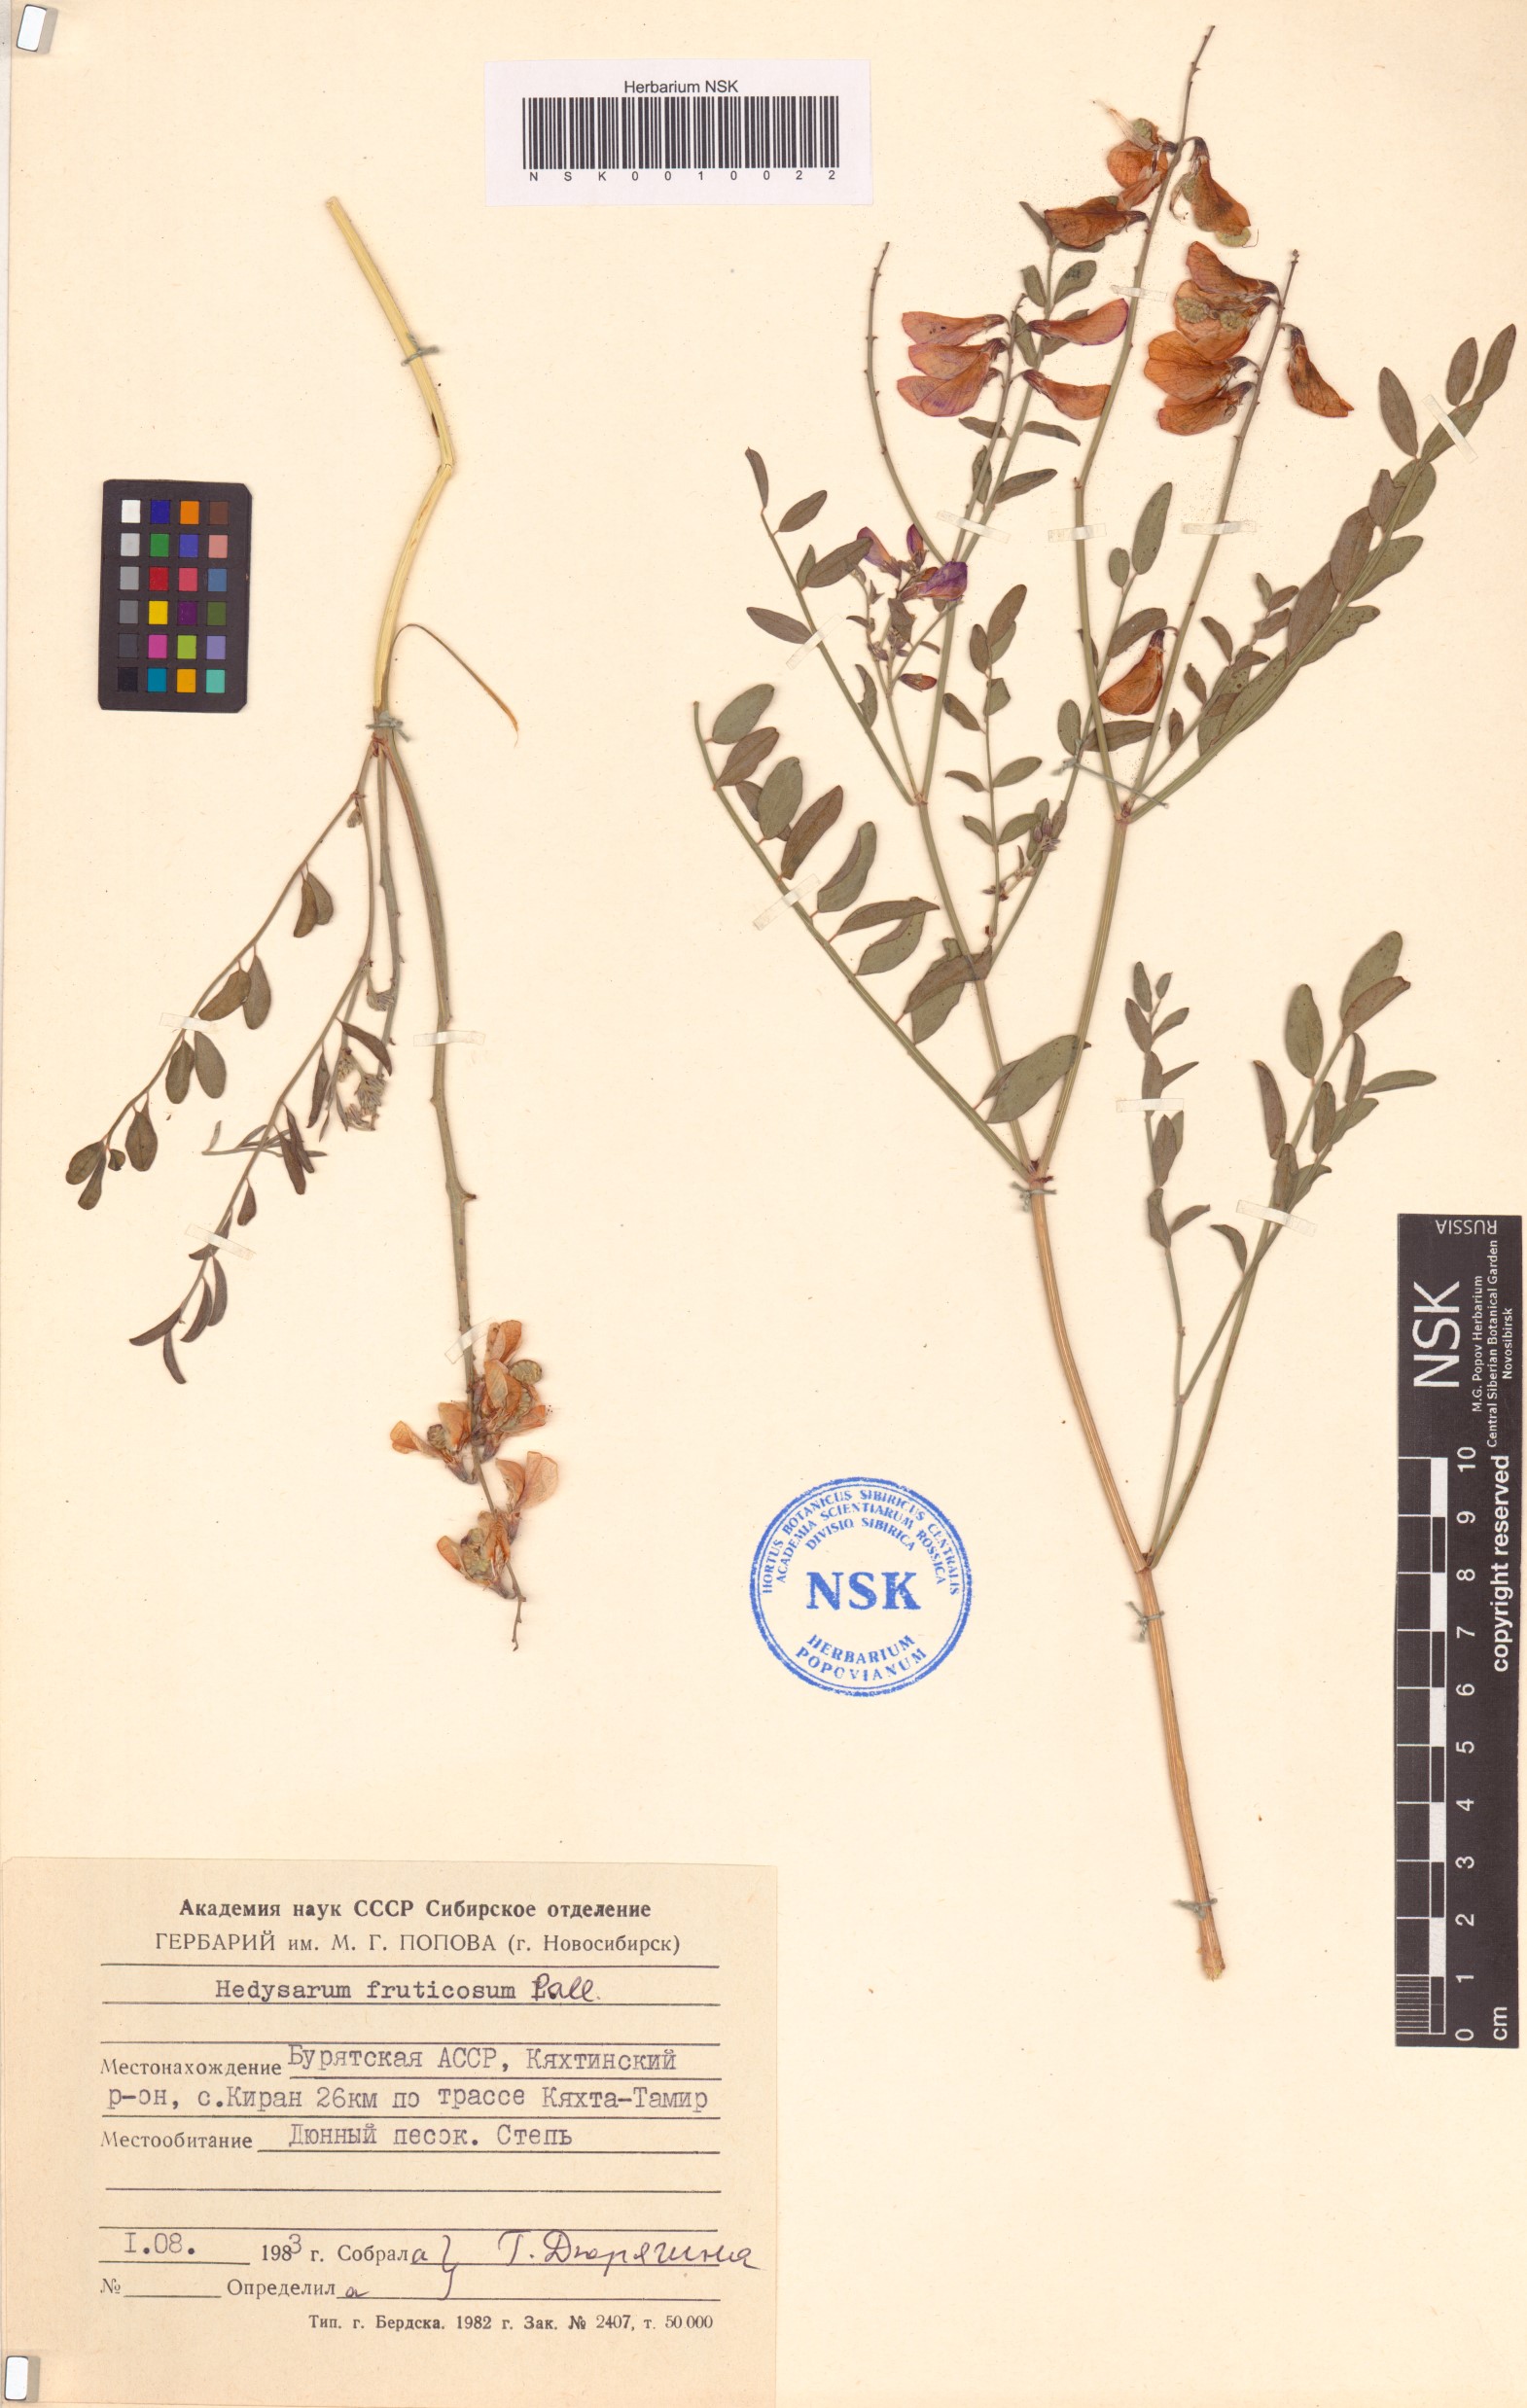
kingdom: Plantae
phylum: Tracheophyta
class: Magnoliopsida
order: Fabales
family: Fabaceae
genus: Corethrodendron
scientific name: Corethrodendron fruticosum
